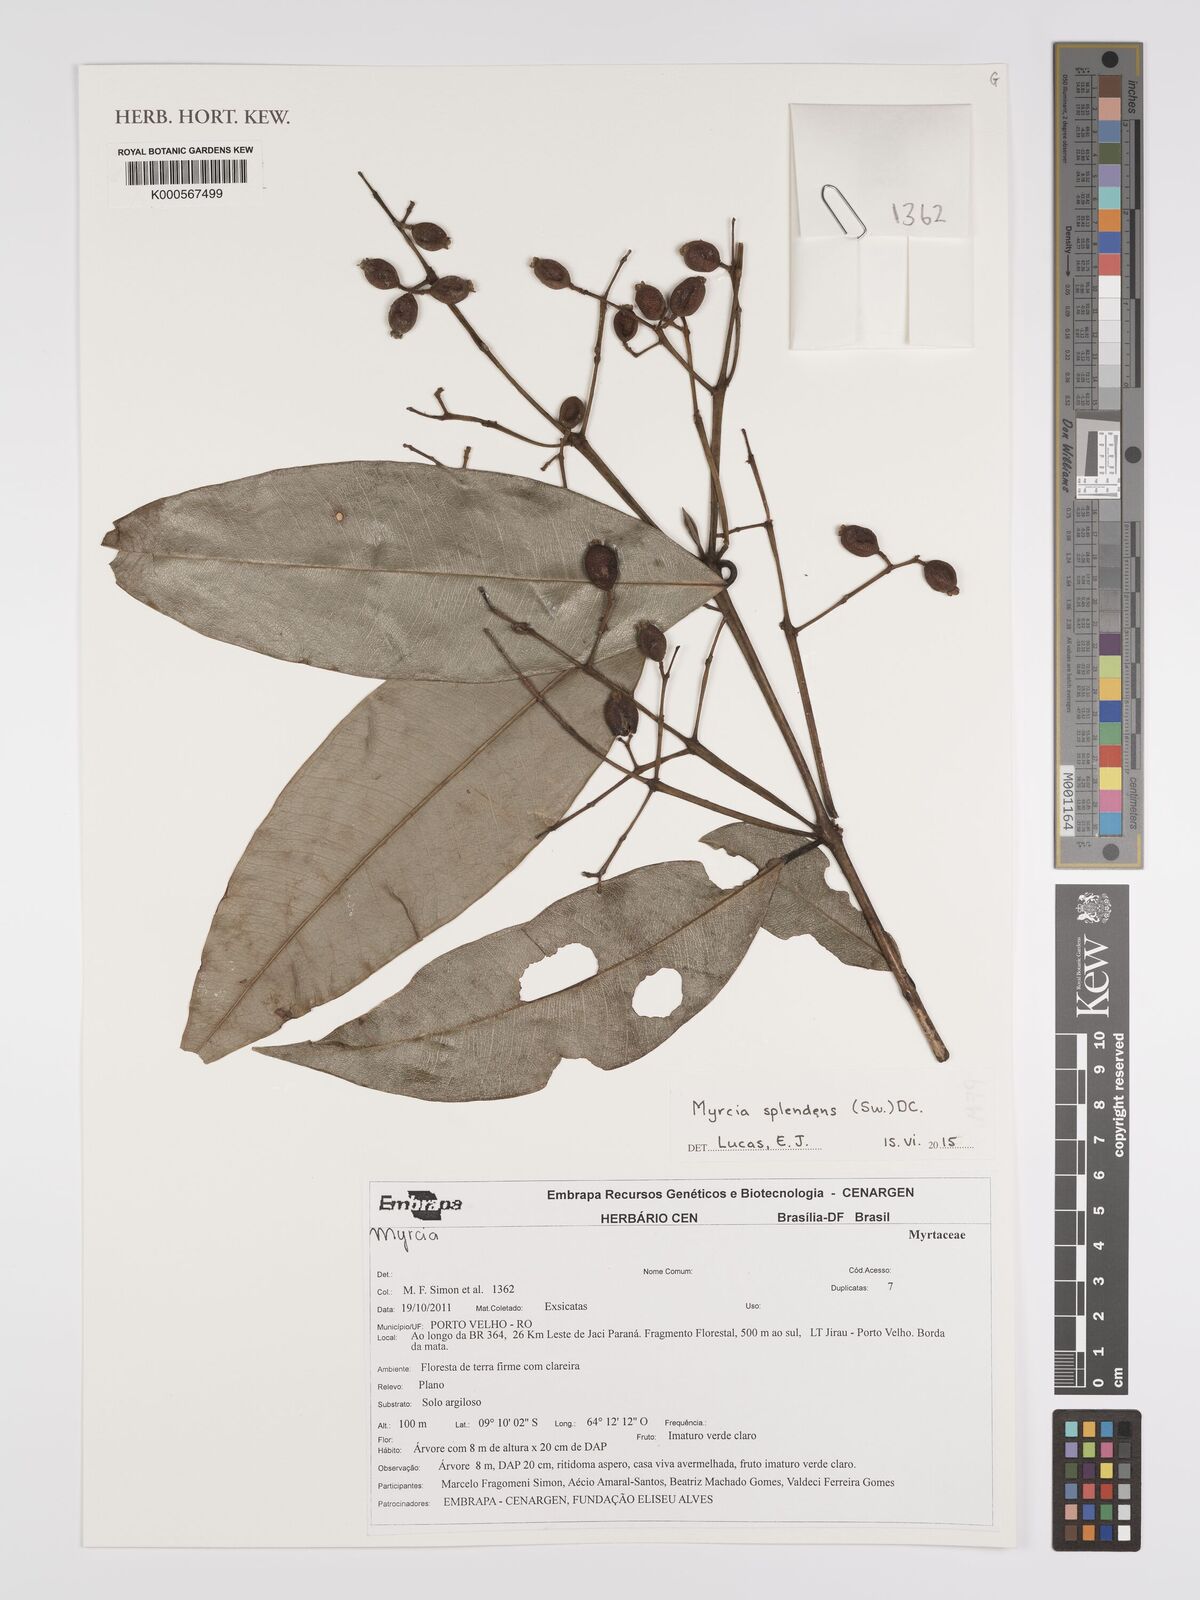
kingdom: Plantae
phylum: Tracheophyta
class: Magnoliopsida
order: Myrtales
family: Myrtaceae
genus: Myrcia
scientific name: Myrcia splendens
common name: Surinam cherry
